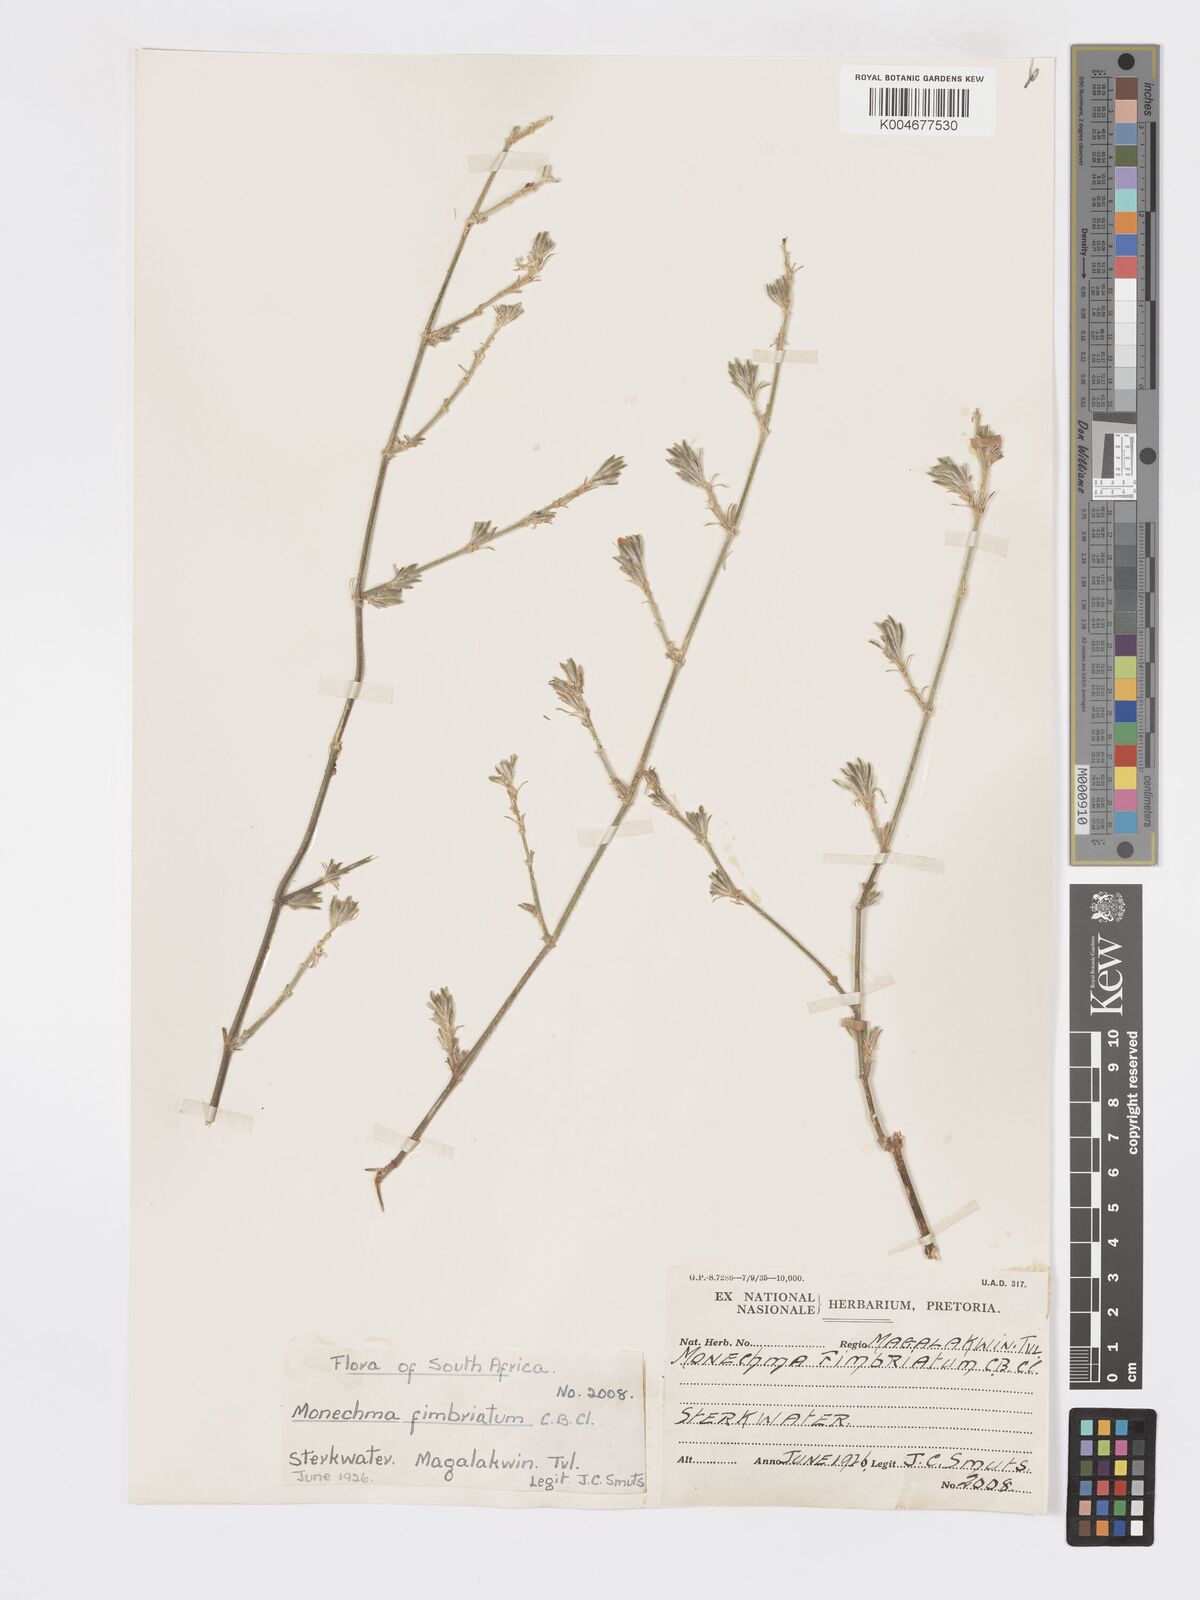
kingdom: Plantae
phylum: Tracheophyta
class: Magnoliopsida
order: Lamiales
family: Acanthaceae
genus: Pogonospermum
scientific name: Pogonospermum
